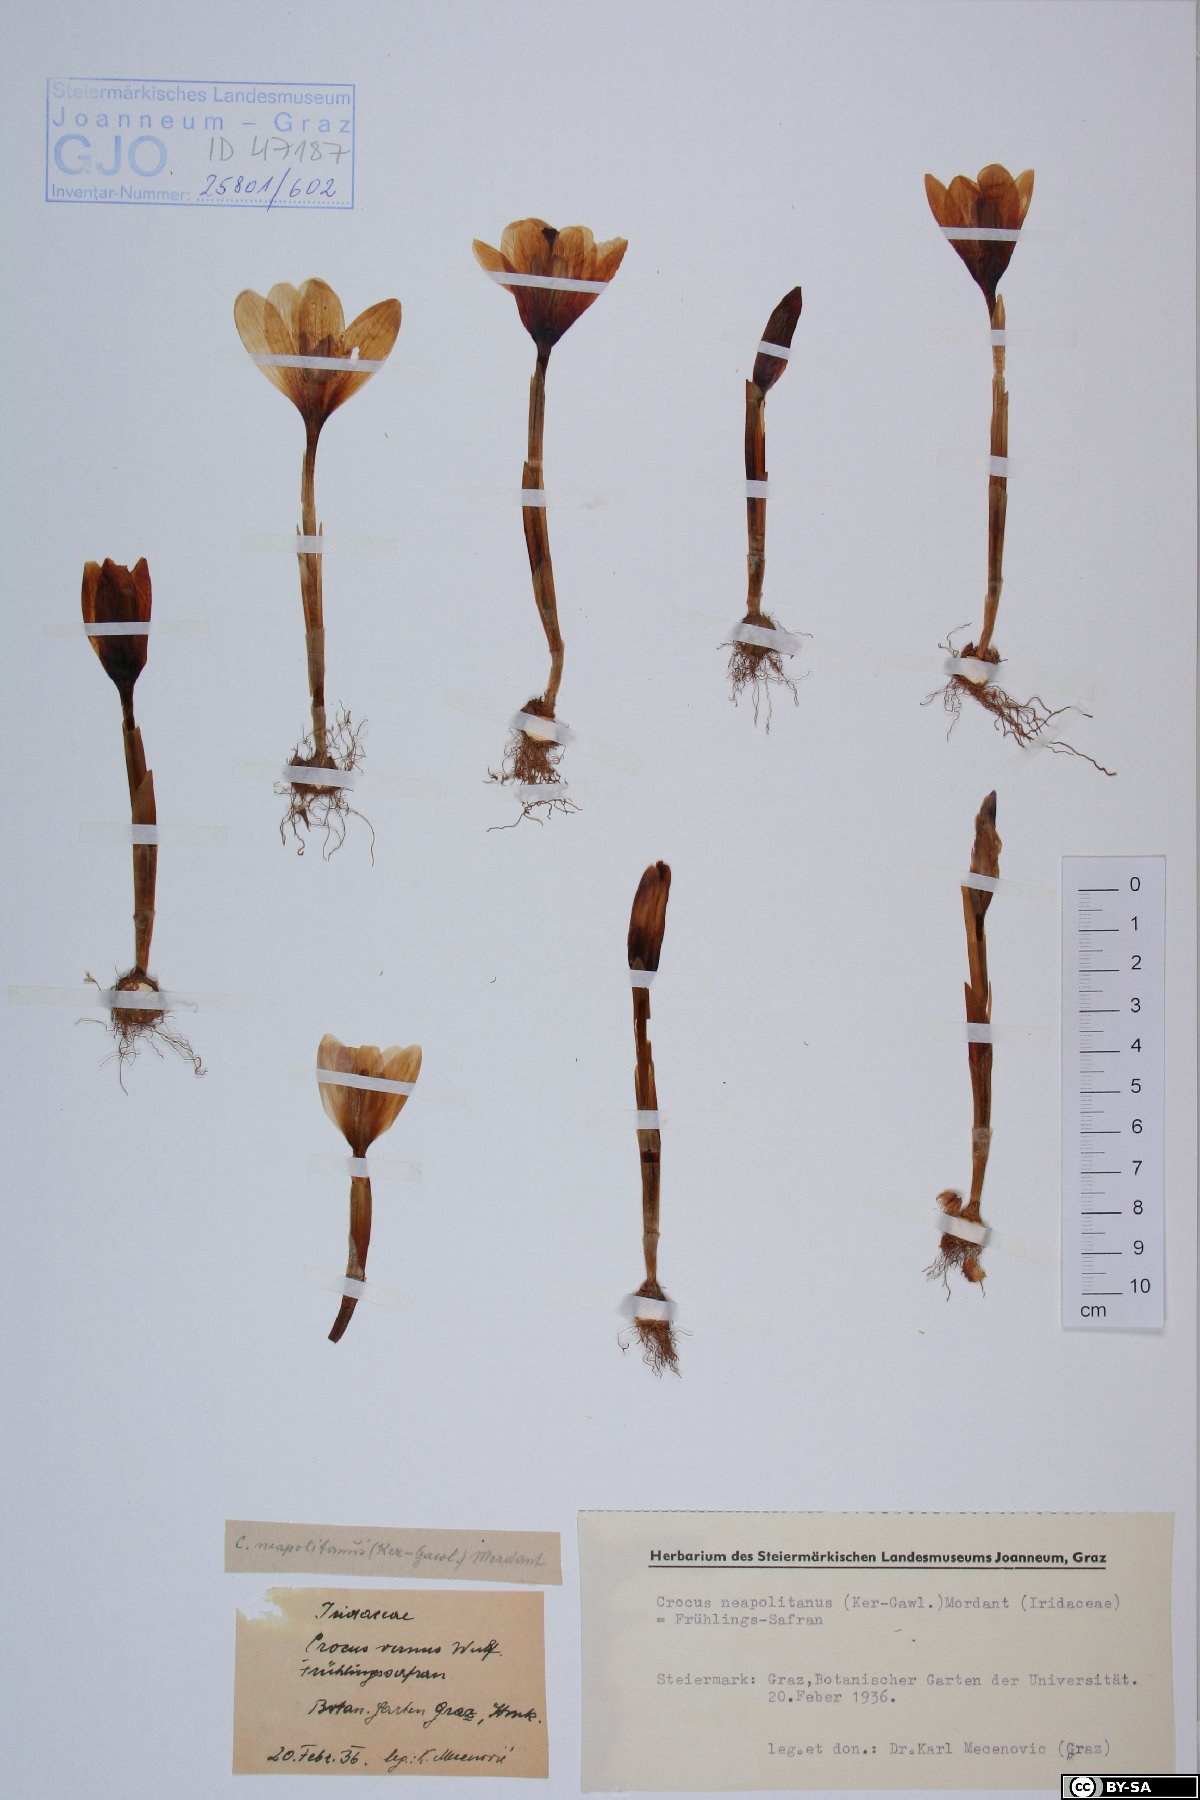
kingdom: Plantae
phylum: Tracheophyta
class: Liliopsida
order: Asparagales
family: Iridaceae
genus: Crocus
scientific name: Crocus vernus
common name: Spring crocus
